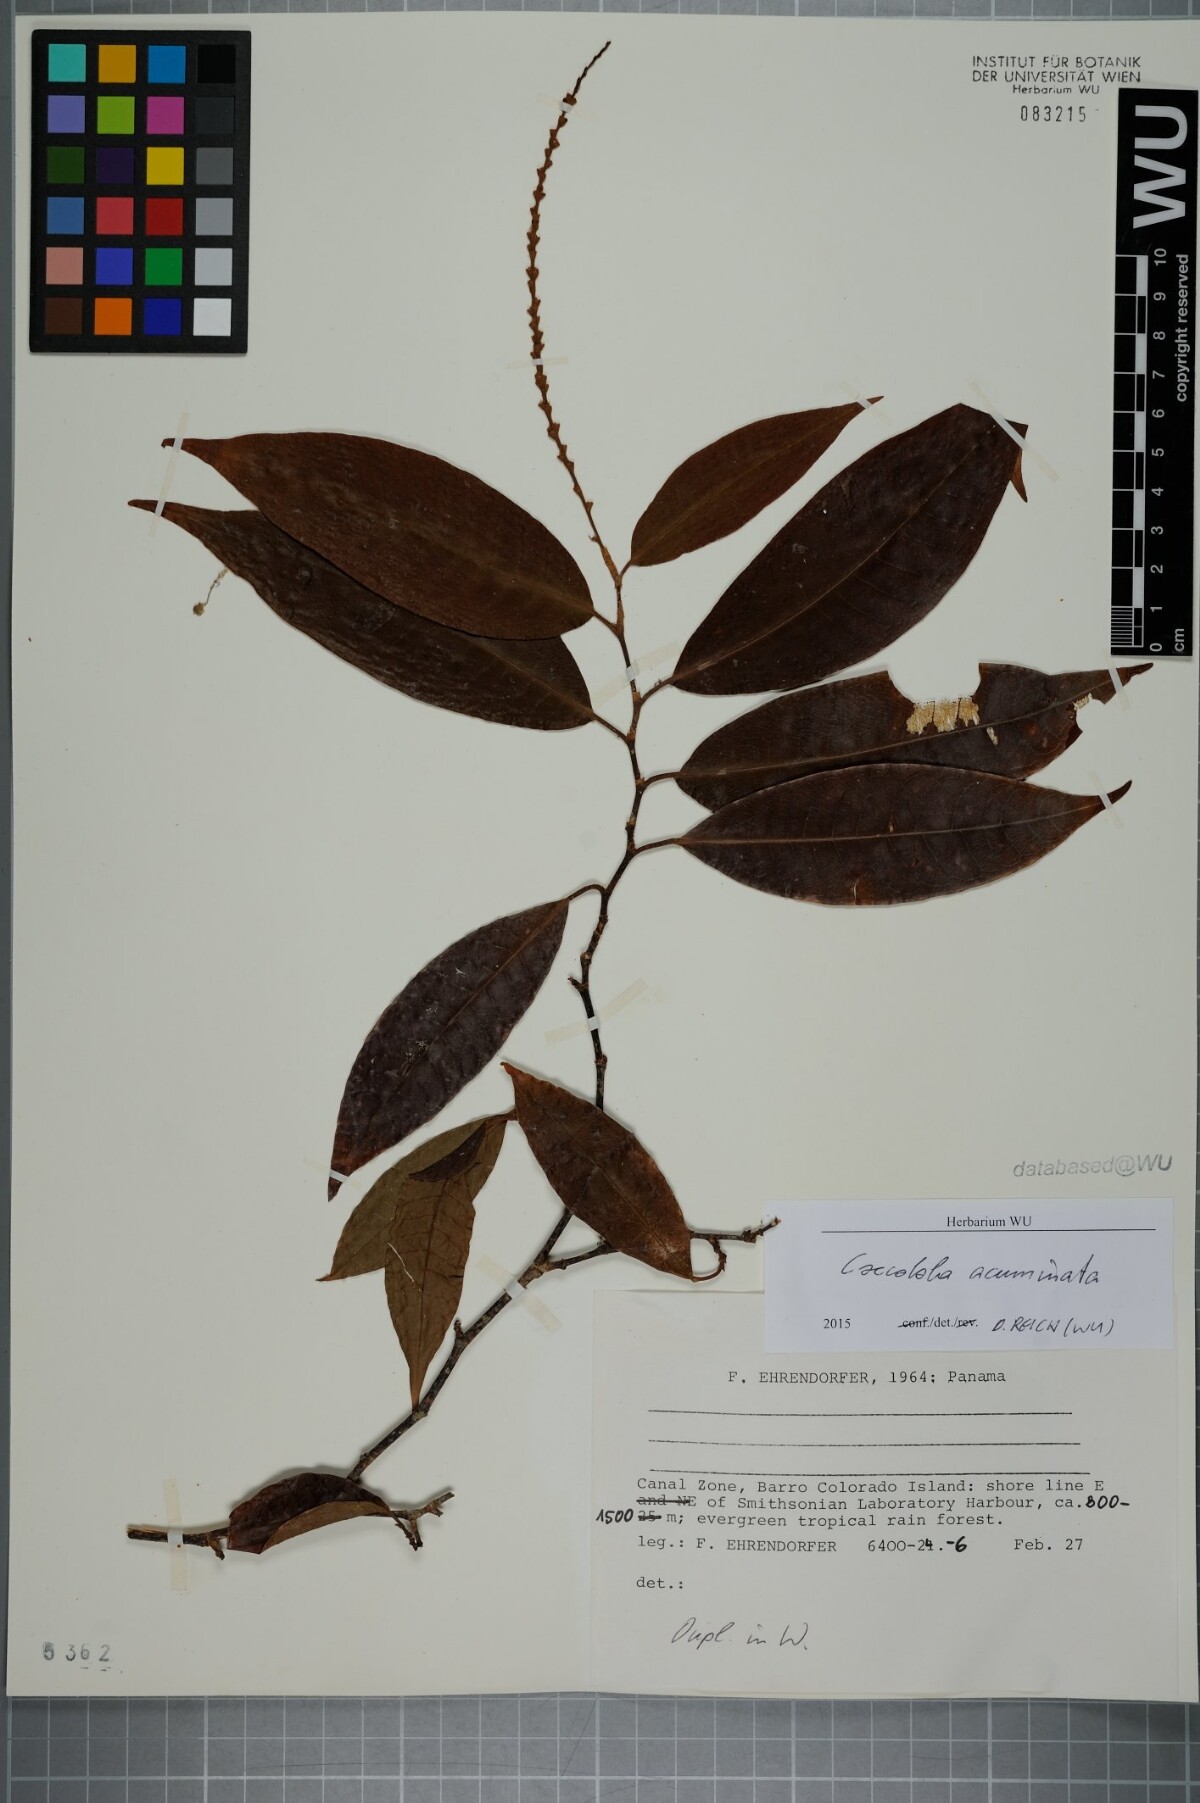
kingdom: Plantae
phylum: Tracheophyta
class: Magnoliopsida
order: Caryophyllales
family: Polygonaceae
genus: Coccoloba
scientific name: Coccoloba acuminata
